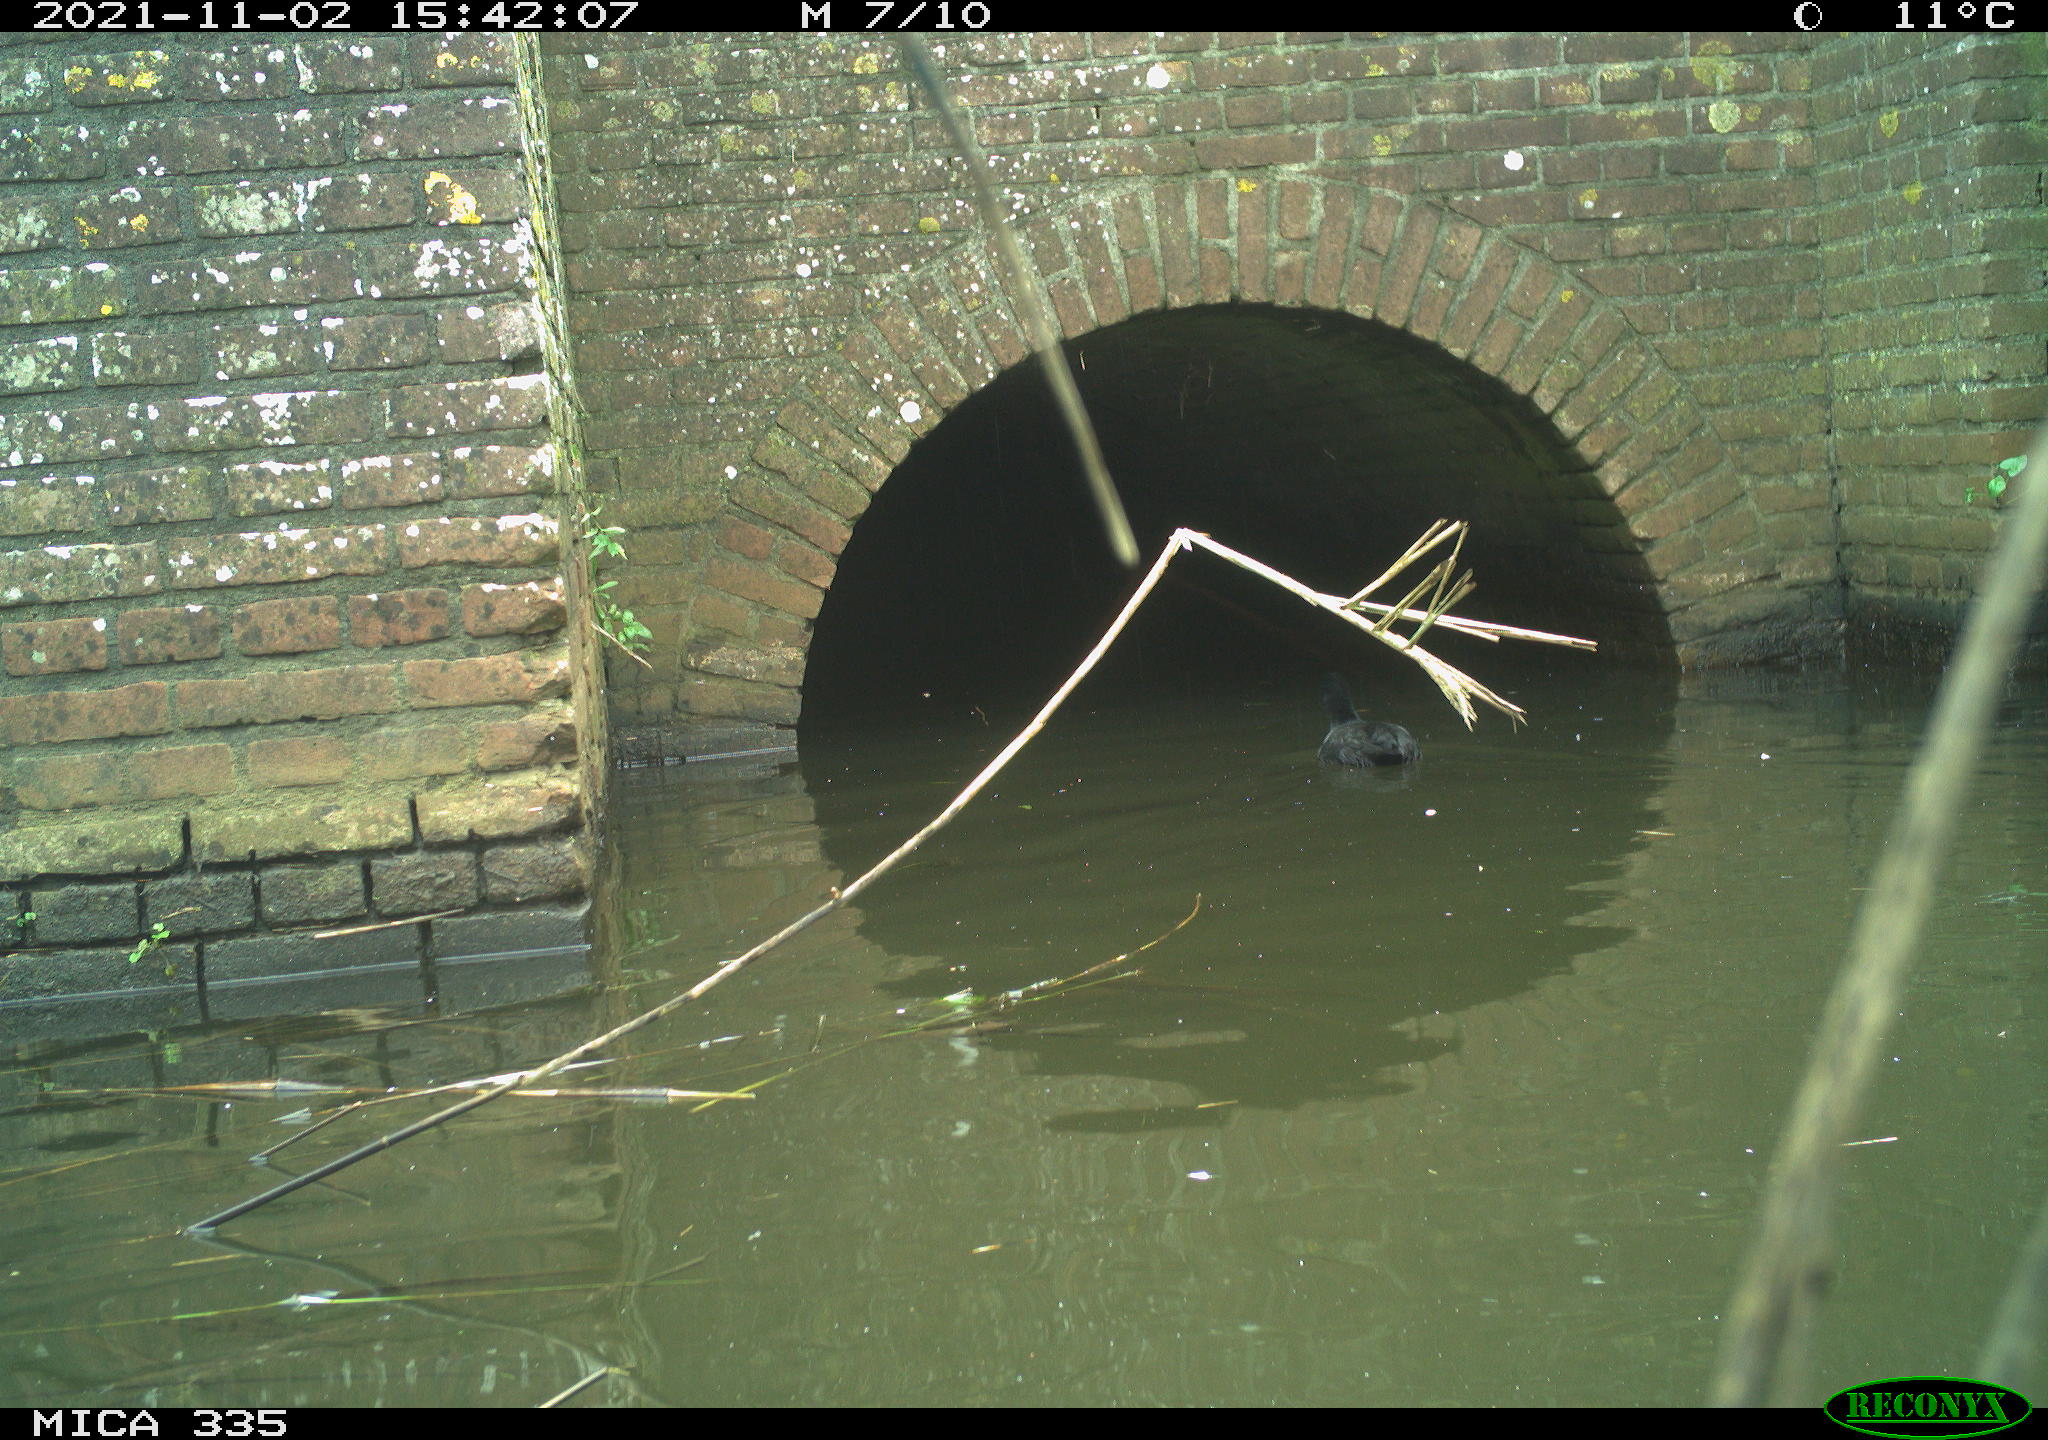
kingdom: Animalia
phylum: Chordata
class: Aves
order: Gruiformes
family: Rallidae
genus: Fulica
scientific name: Fulica atra
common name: Eurasian coot
